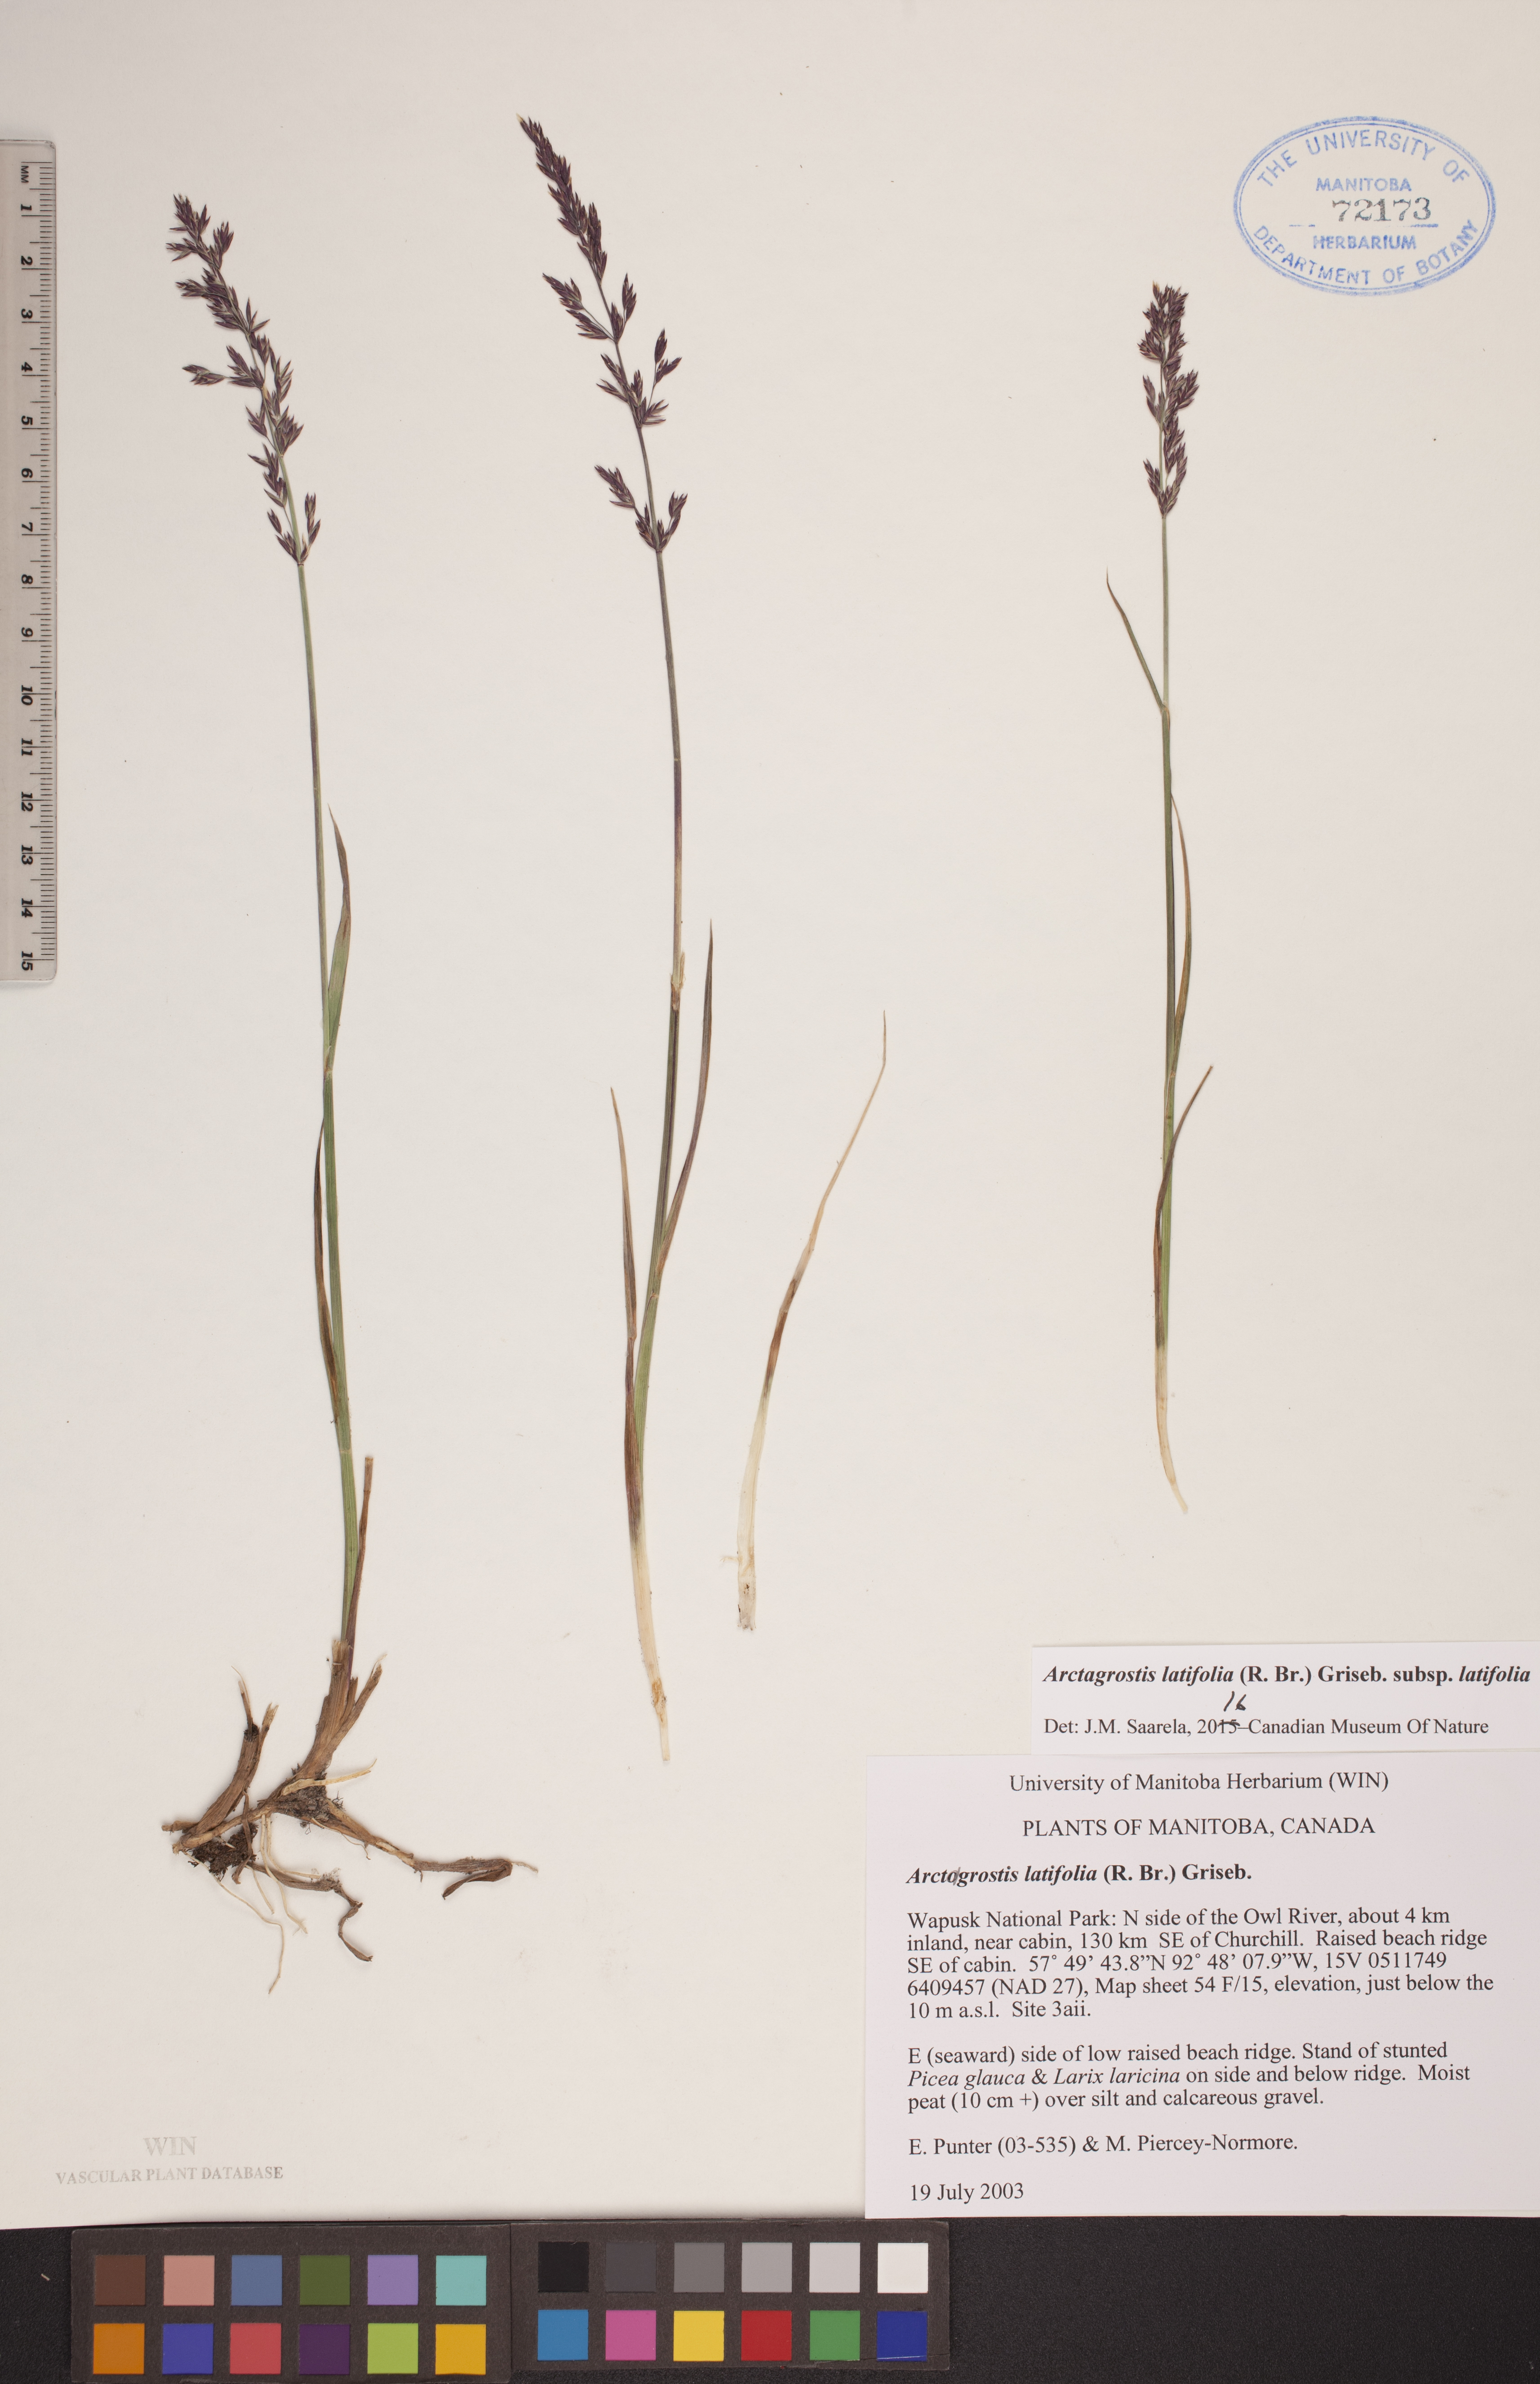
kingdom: Plantae
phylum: Tracheophyta
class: Liliopsida
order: Poales
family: Poaceae
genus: Arctagrostis
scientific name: Arctagrostis latifolia
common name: Arctic grass
